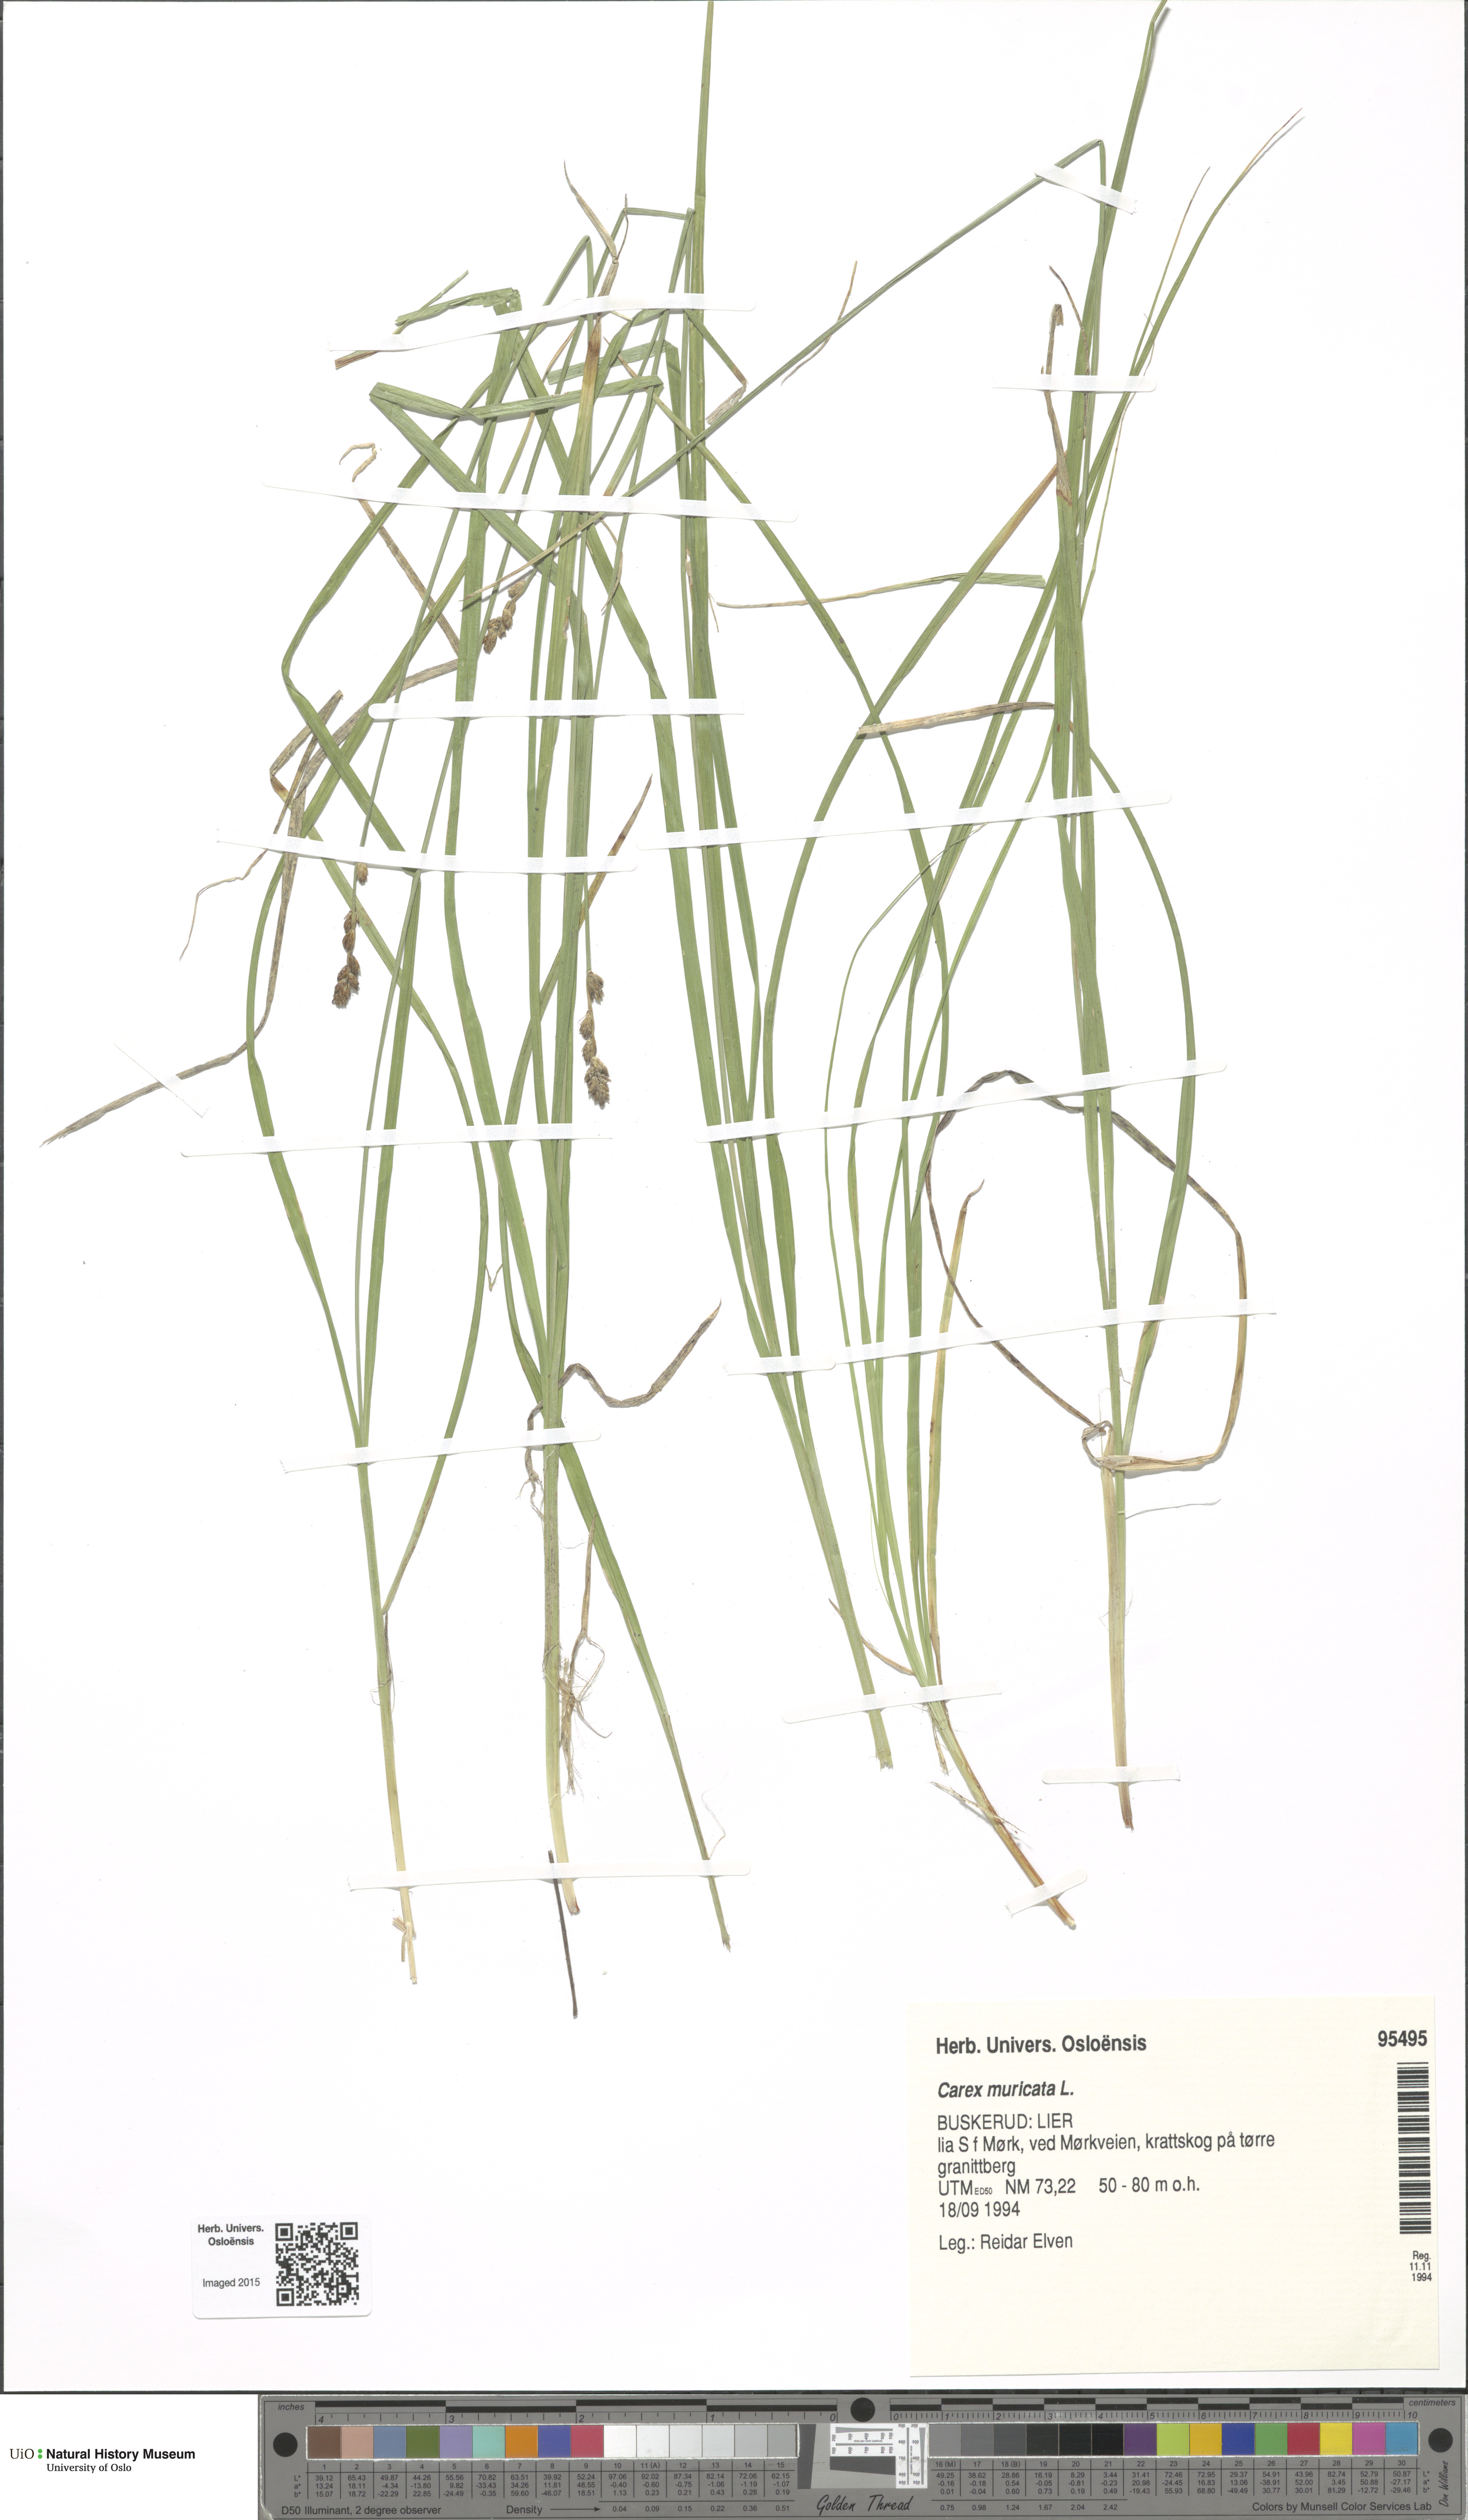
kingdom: Plantae
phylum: Tracheophyta
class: Liliopsida
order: Poales
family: Cyperaceae
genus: Carex
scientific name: Carex muricata
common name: Rough sedge
